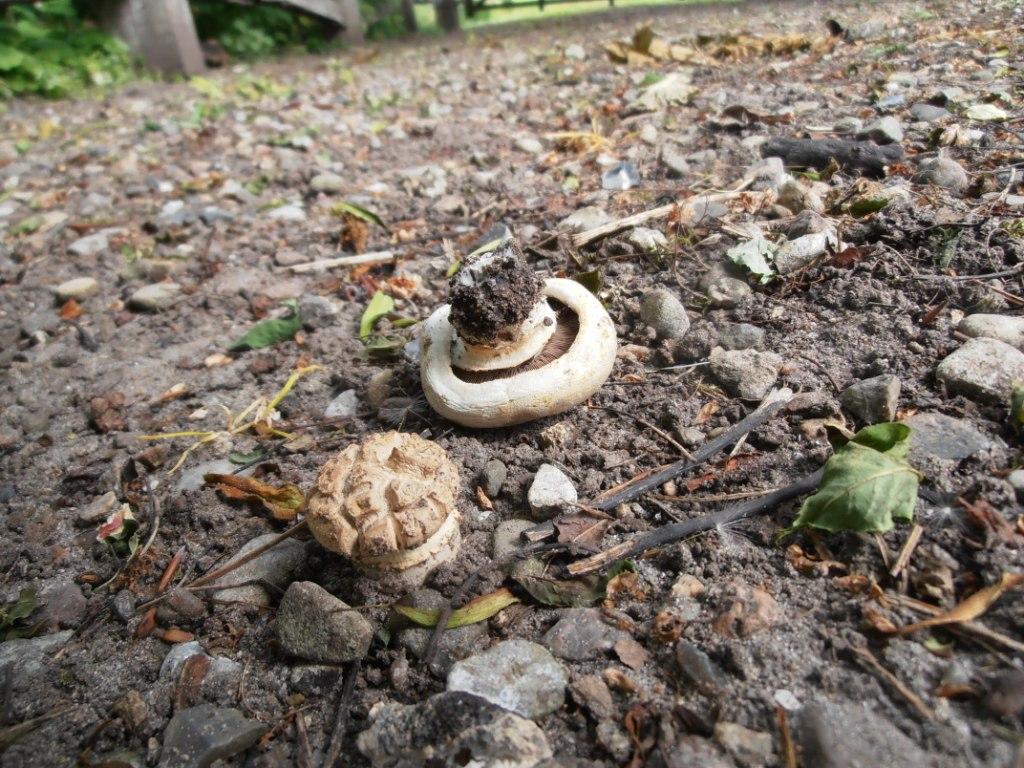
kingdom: Fungi
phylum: Basidiomycota
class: Agaricomycetes
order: Agaricales
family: Agaricaceae
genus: Agaricus
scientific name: Agaricus bitorquis
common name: vej-champignon
